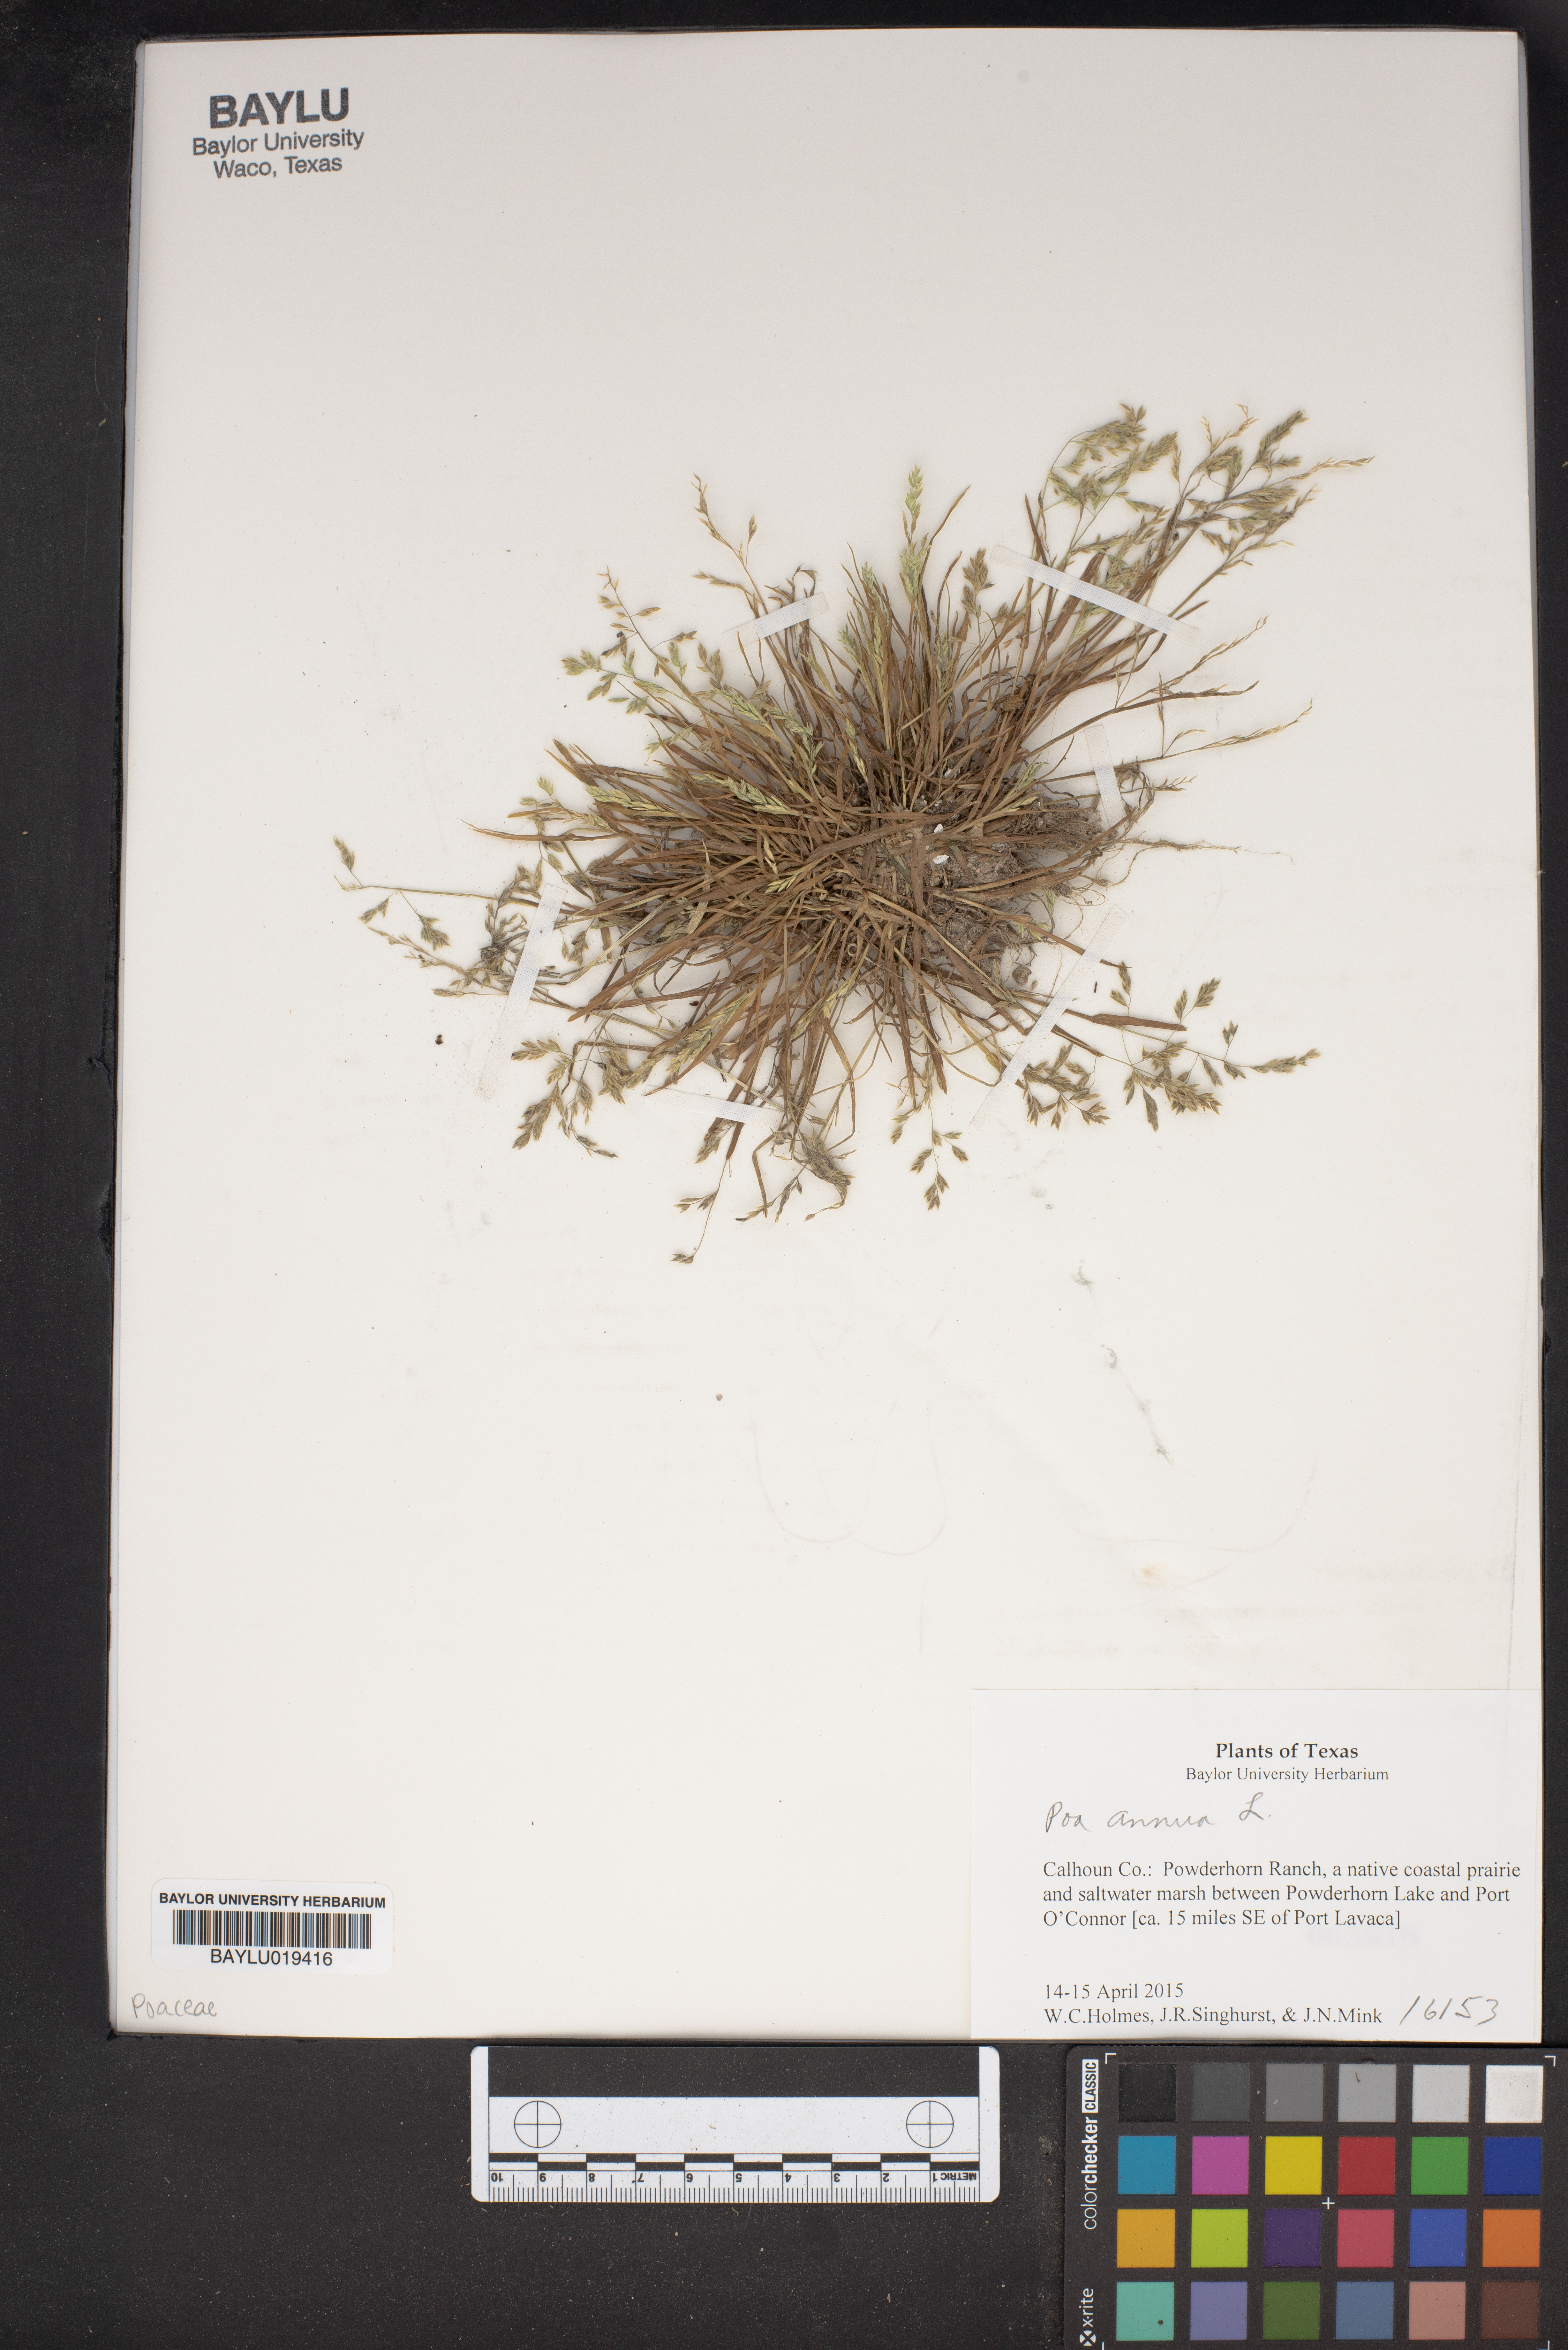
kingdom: Plantae
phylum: Tracheophyta
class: Liliopsida
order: Poales
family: Poaceae
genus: Poa
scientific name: Poa annua
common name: Annual bluegrass
